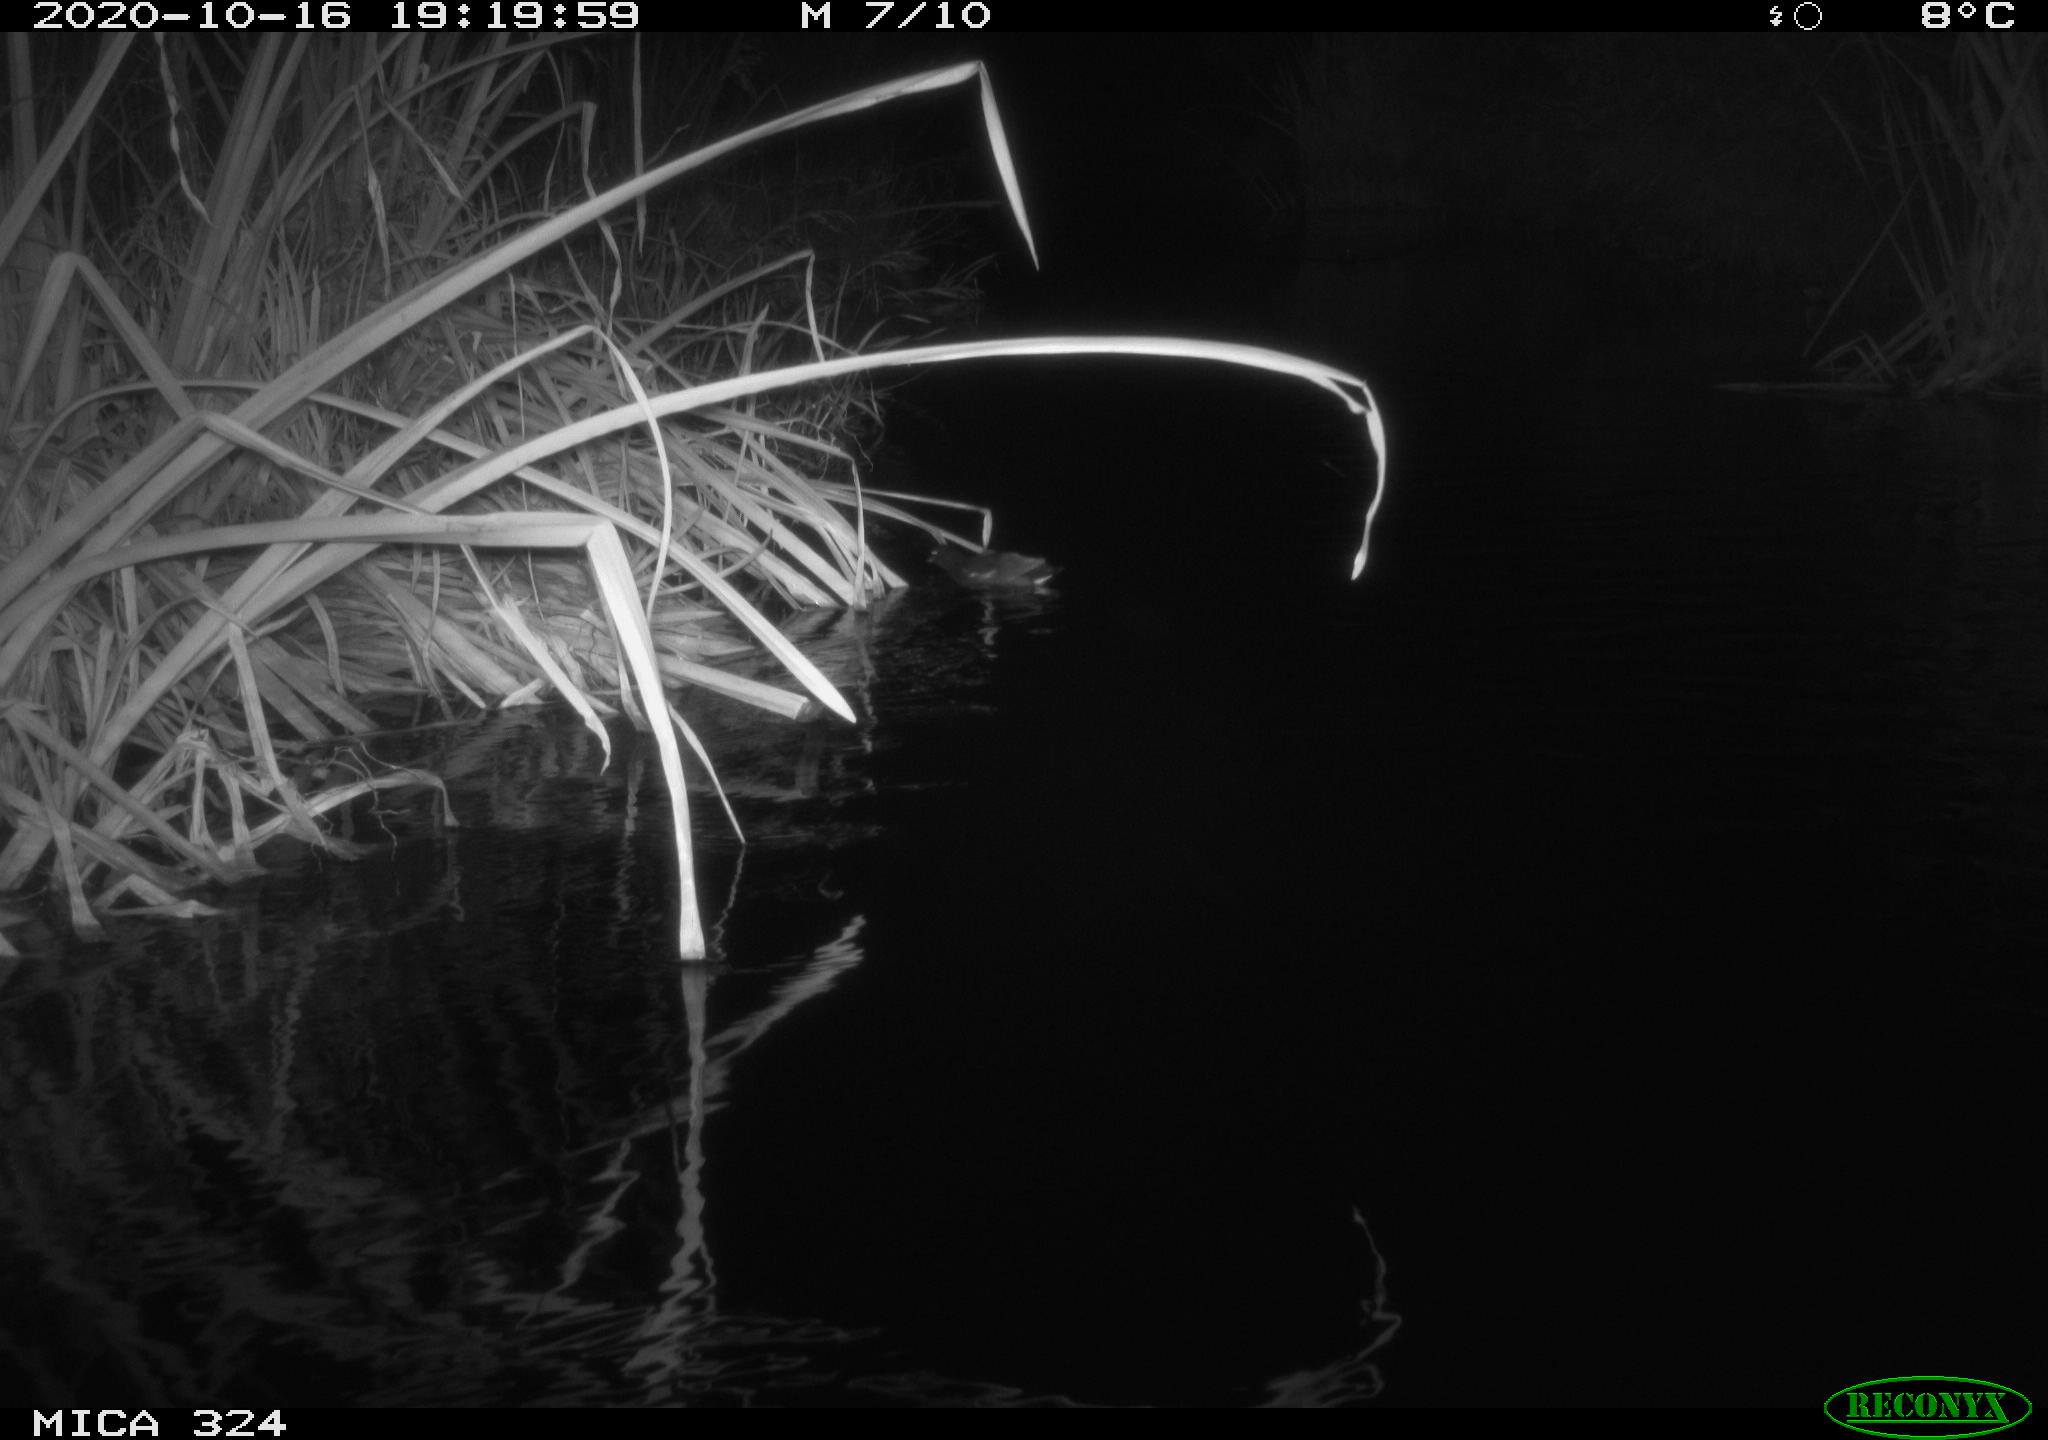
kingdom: Animalia
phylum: Chordata
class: Aves
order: Gruiformes
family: Rallidae
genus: Gallinula
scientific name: Gallinula chloropus
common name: Common moorhen
